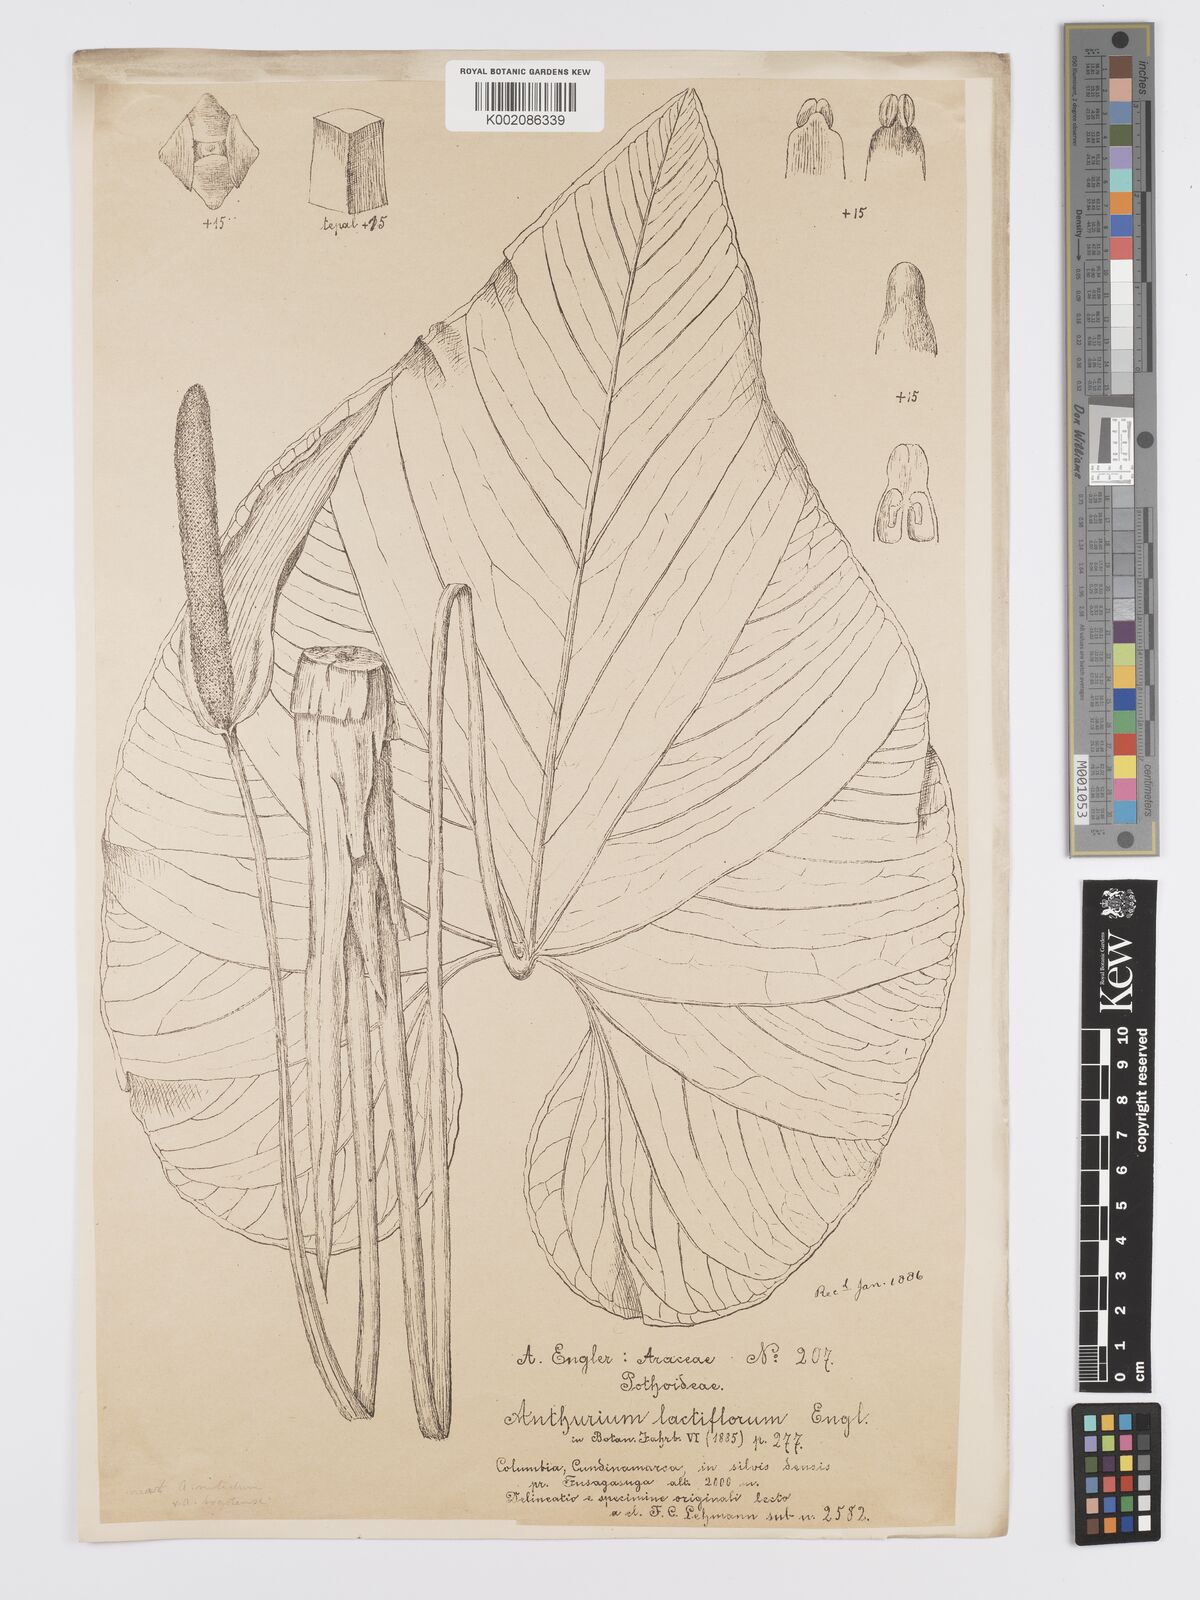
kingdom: Plantae
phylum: Tracheophyta
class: Liliopsida
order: Alismatales
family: Araceae
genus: Anthurium
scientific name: Anthurium formosum
